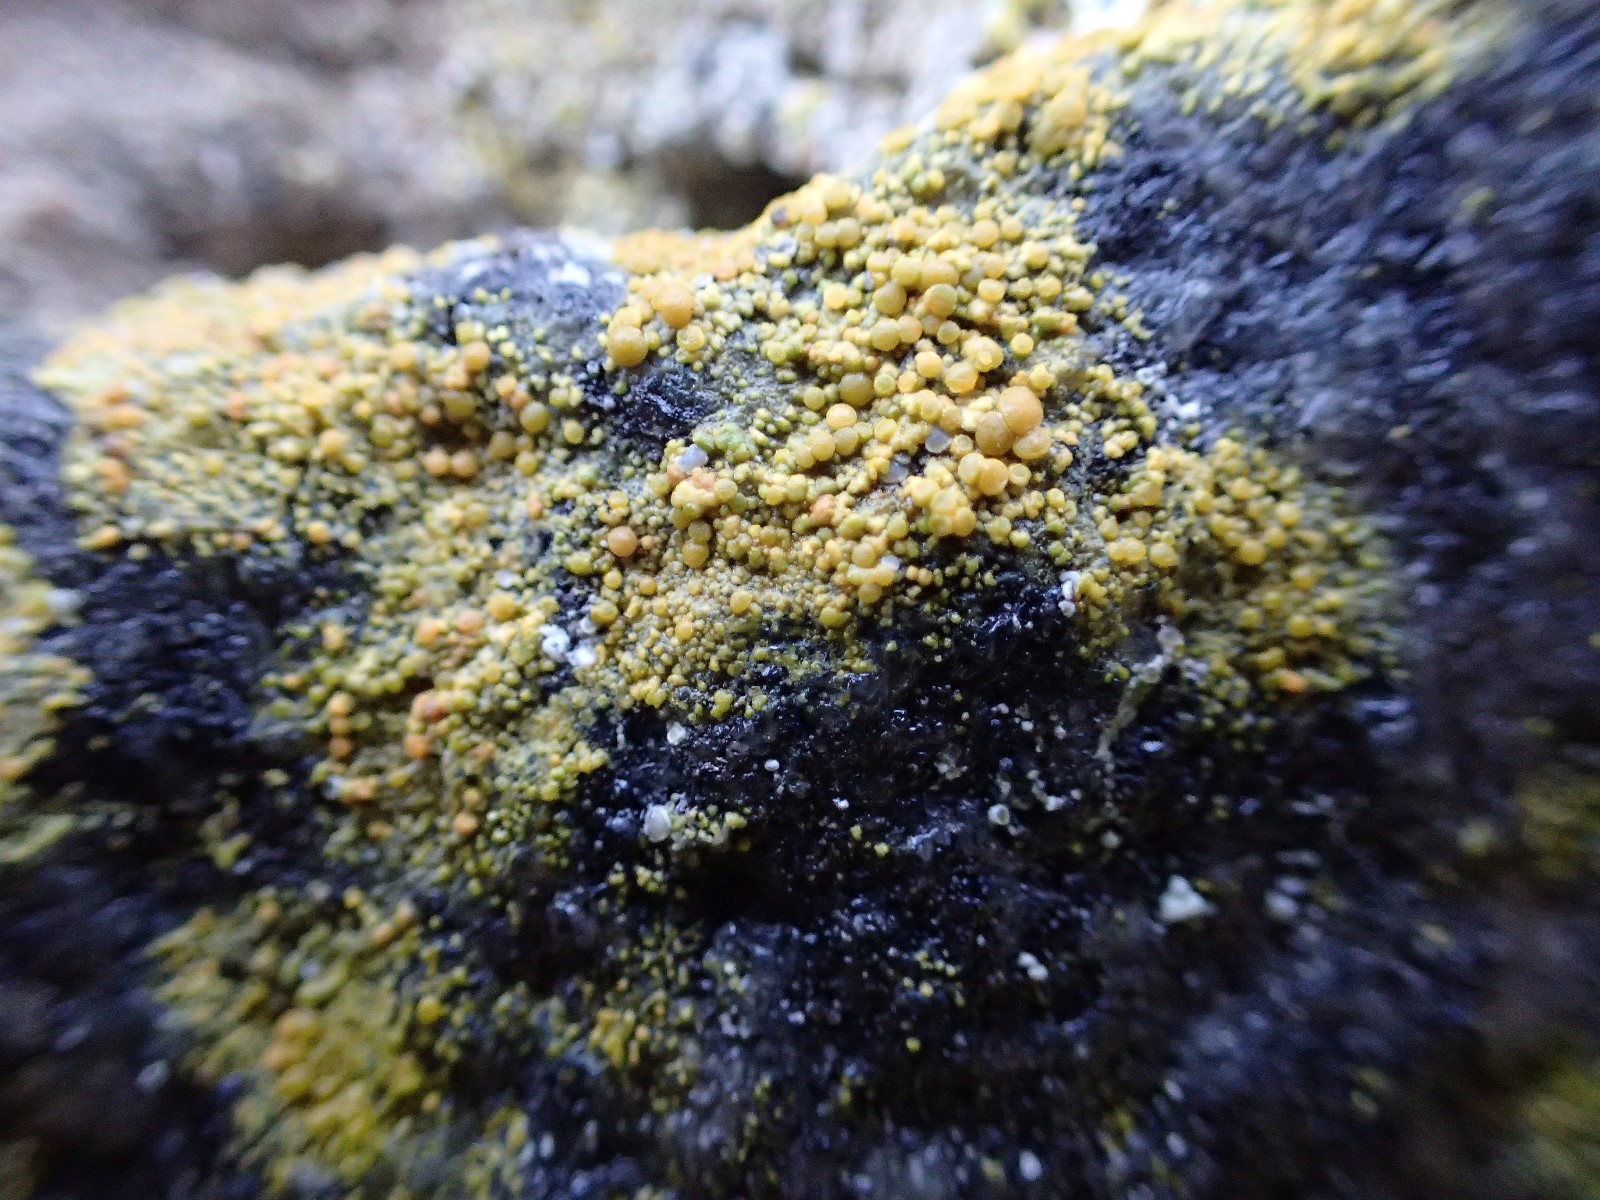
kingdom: Fungi
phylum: Ascomycota
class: Candelariomycetes
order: Candelariales
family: Candelariaceae
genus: Candelariella
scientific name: Candelariella vitellina
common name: almindelig æggeblommelav
